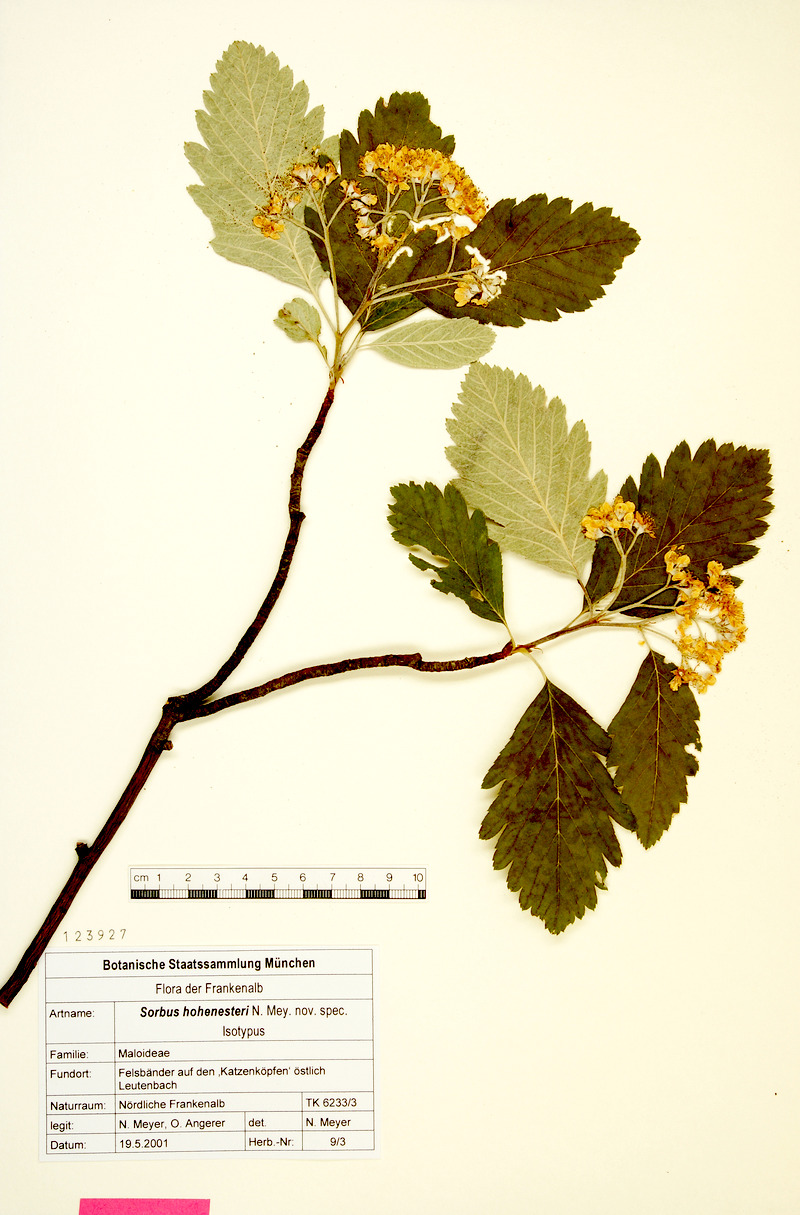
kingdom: Plantae
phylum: Tracheophyta
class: Magnoliopsida
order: Rosales
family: Rosaceae
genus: Hedlundia
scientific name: Hedlundia hohenesteri
